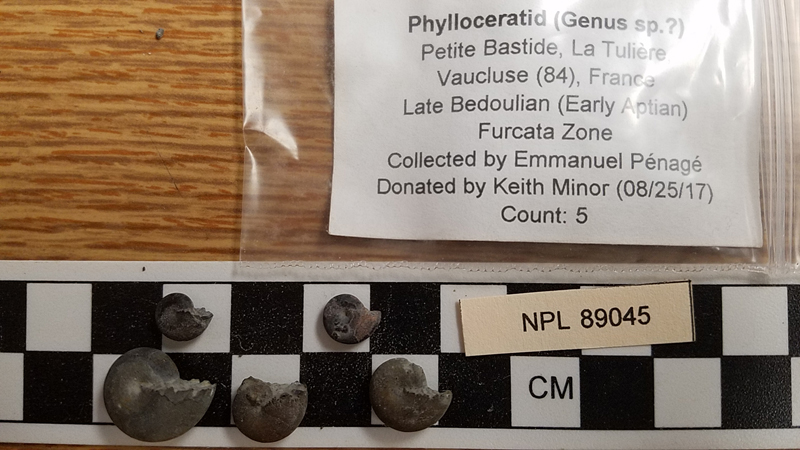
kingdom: Animalia
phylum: Mollusca
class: Cephalopoda
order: Phylloceratida
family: Phylloceratidae
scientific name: Phylloceratidae
